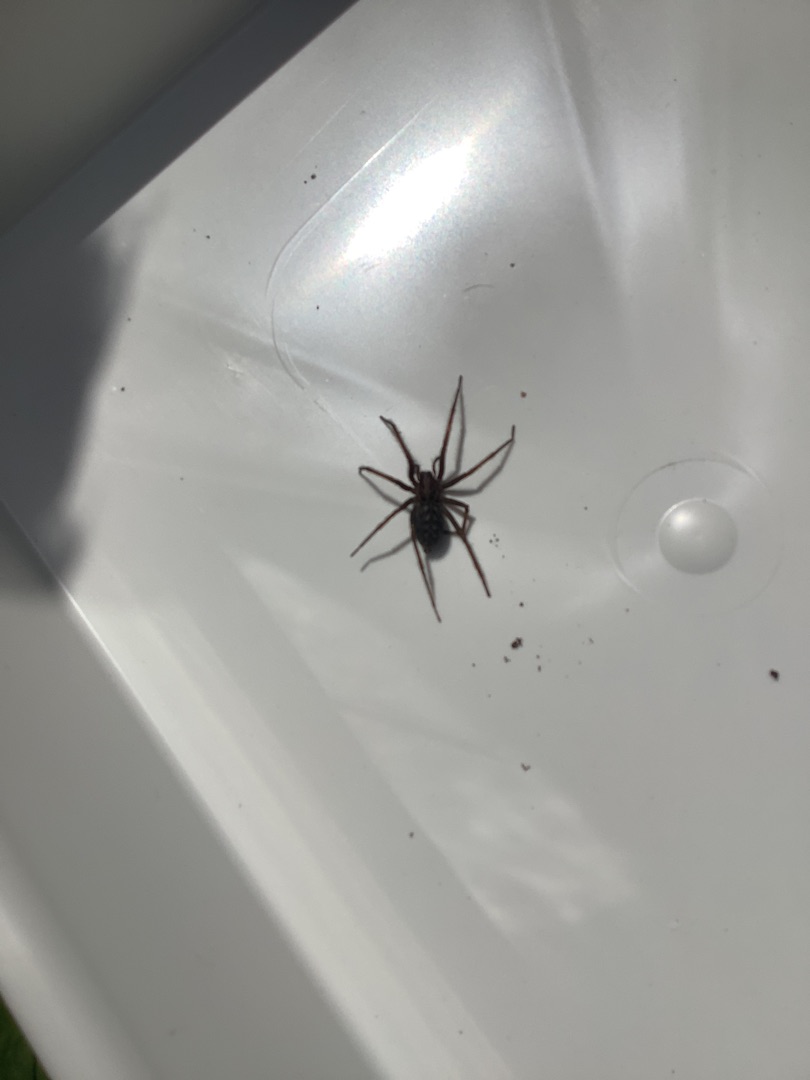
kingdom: Animalia
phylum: Arthropoda
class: Arachnida
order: Araneae
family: Agelenidae
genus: Eratigena
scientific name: Eratigena atrica
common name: Stor husedderkop
